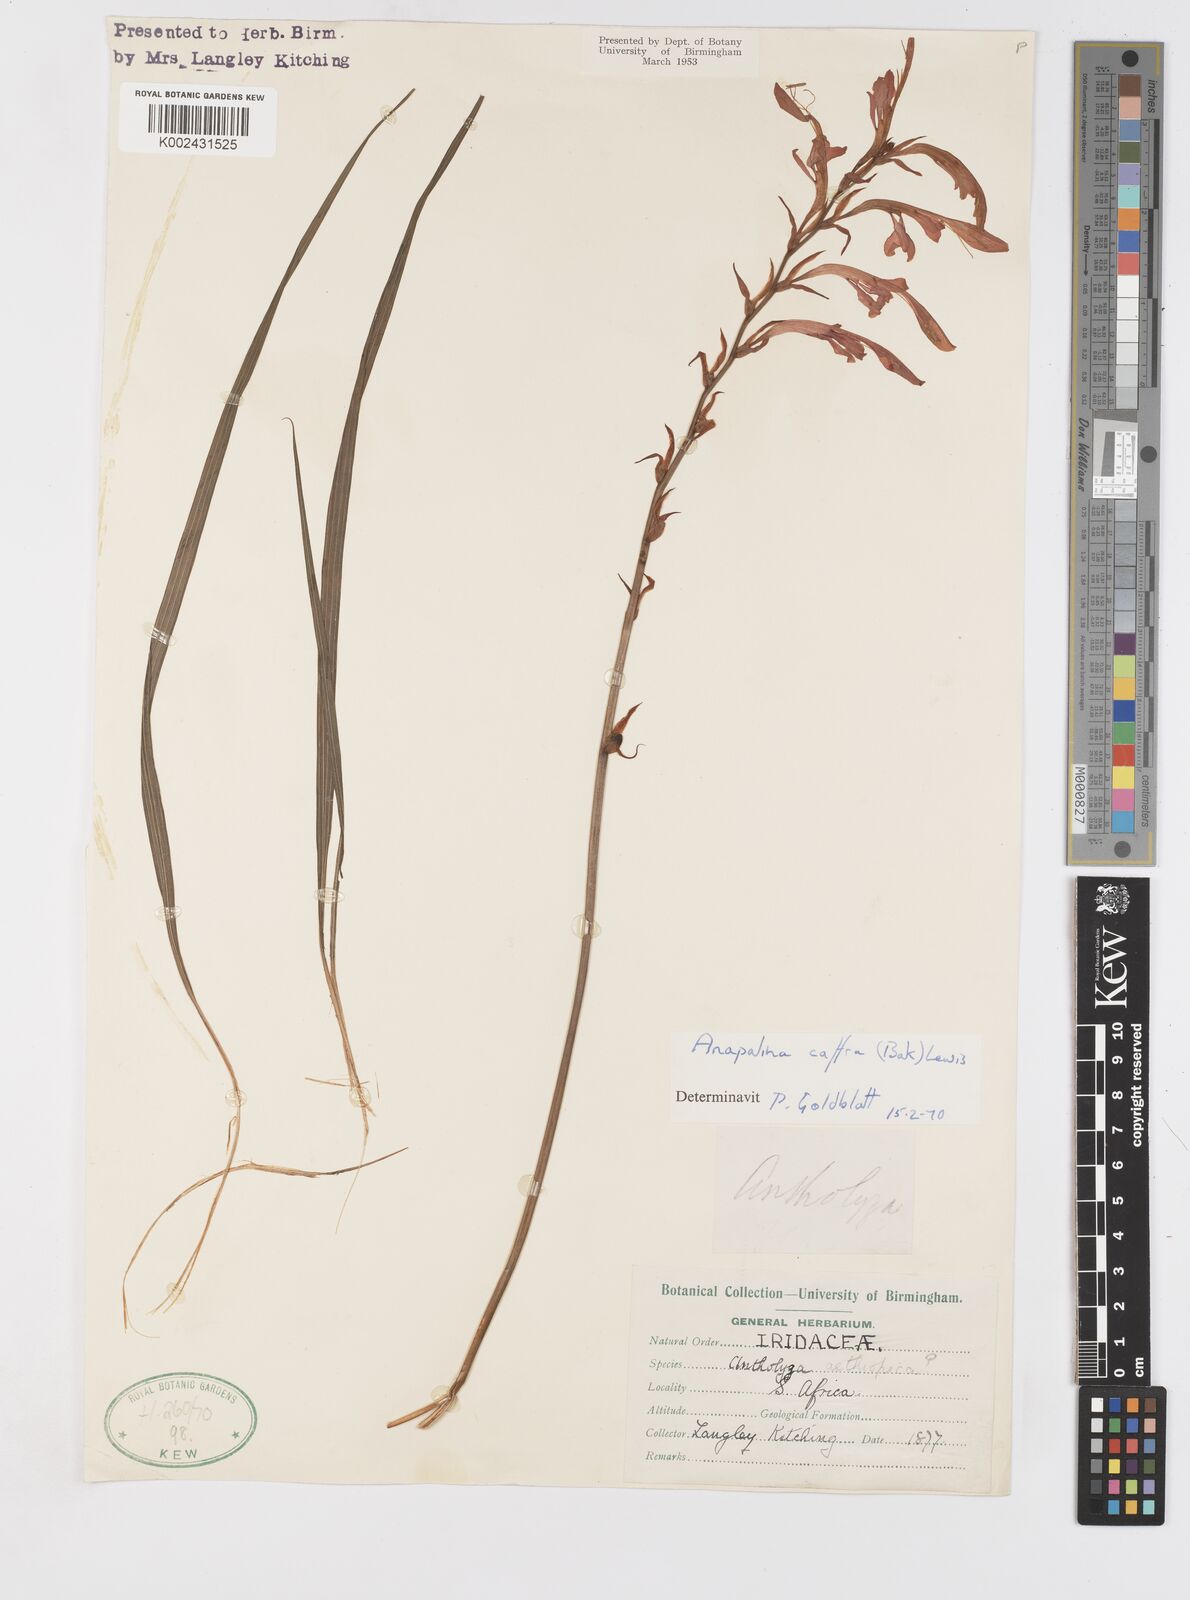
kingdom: Plantae
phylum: Tracheophyta
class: Liliopsida
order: Asparagales
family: Iridaceae
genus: Tritoniopsis
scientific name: Tritoniopsis caffra
